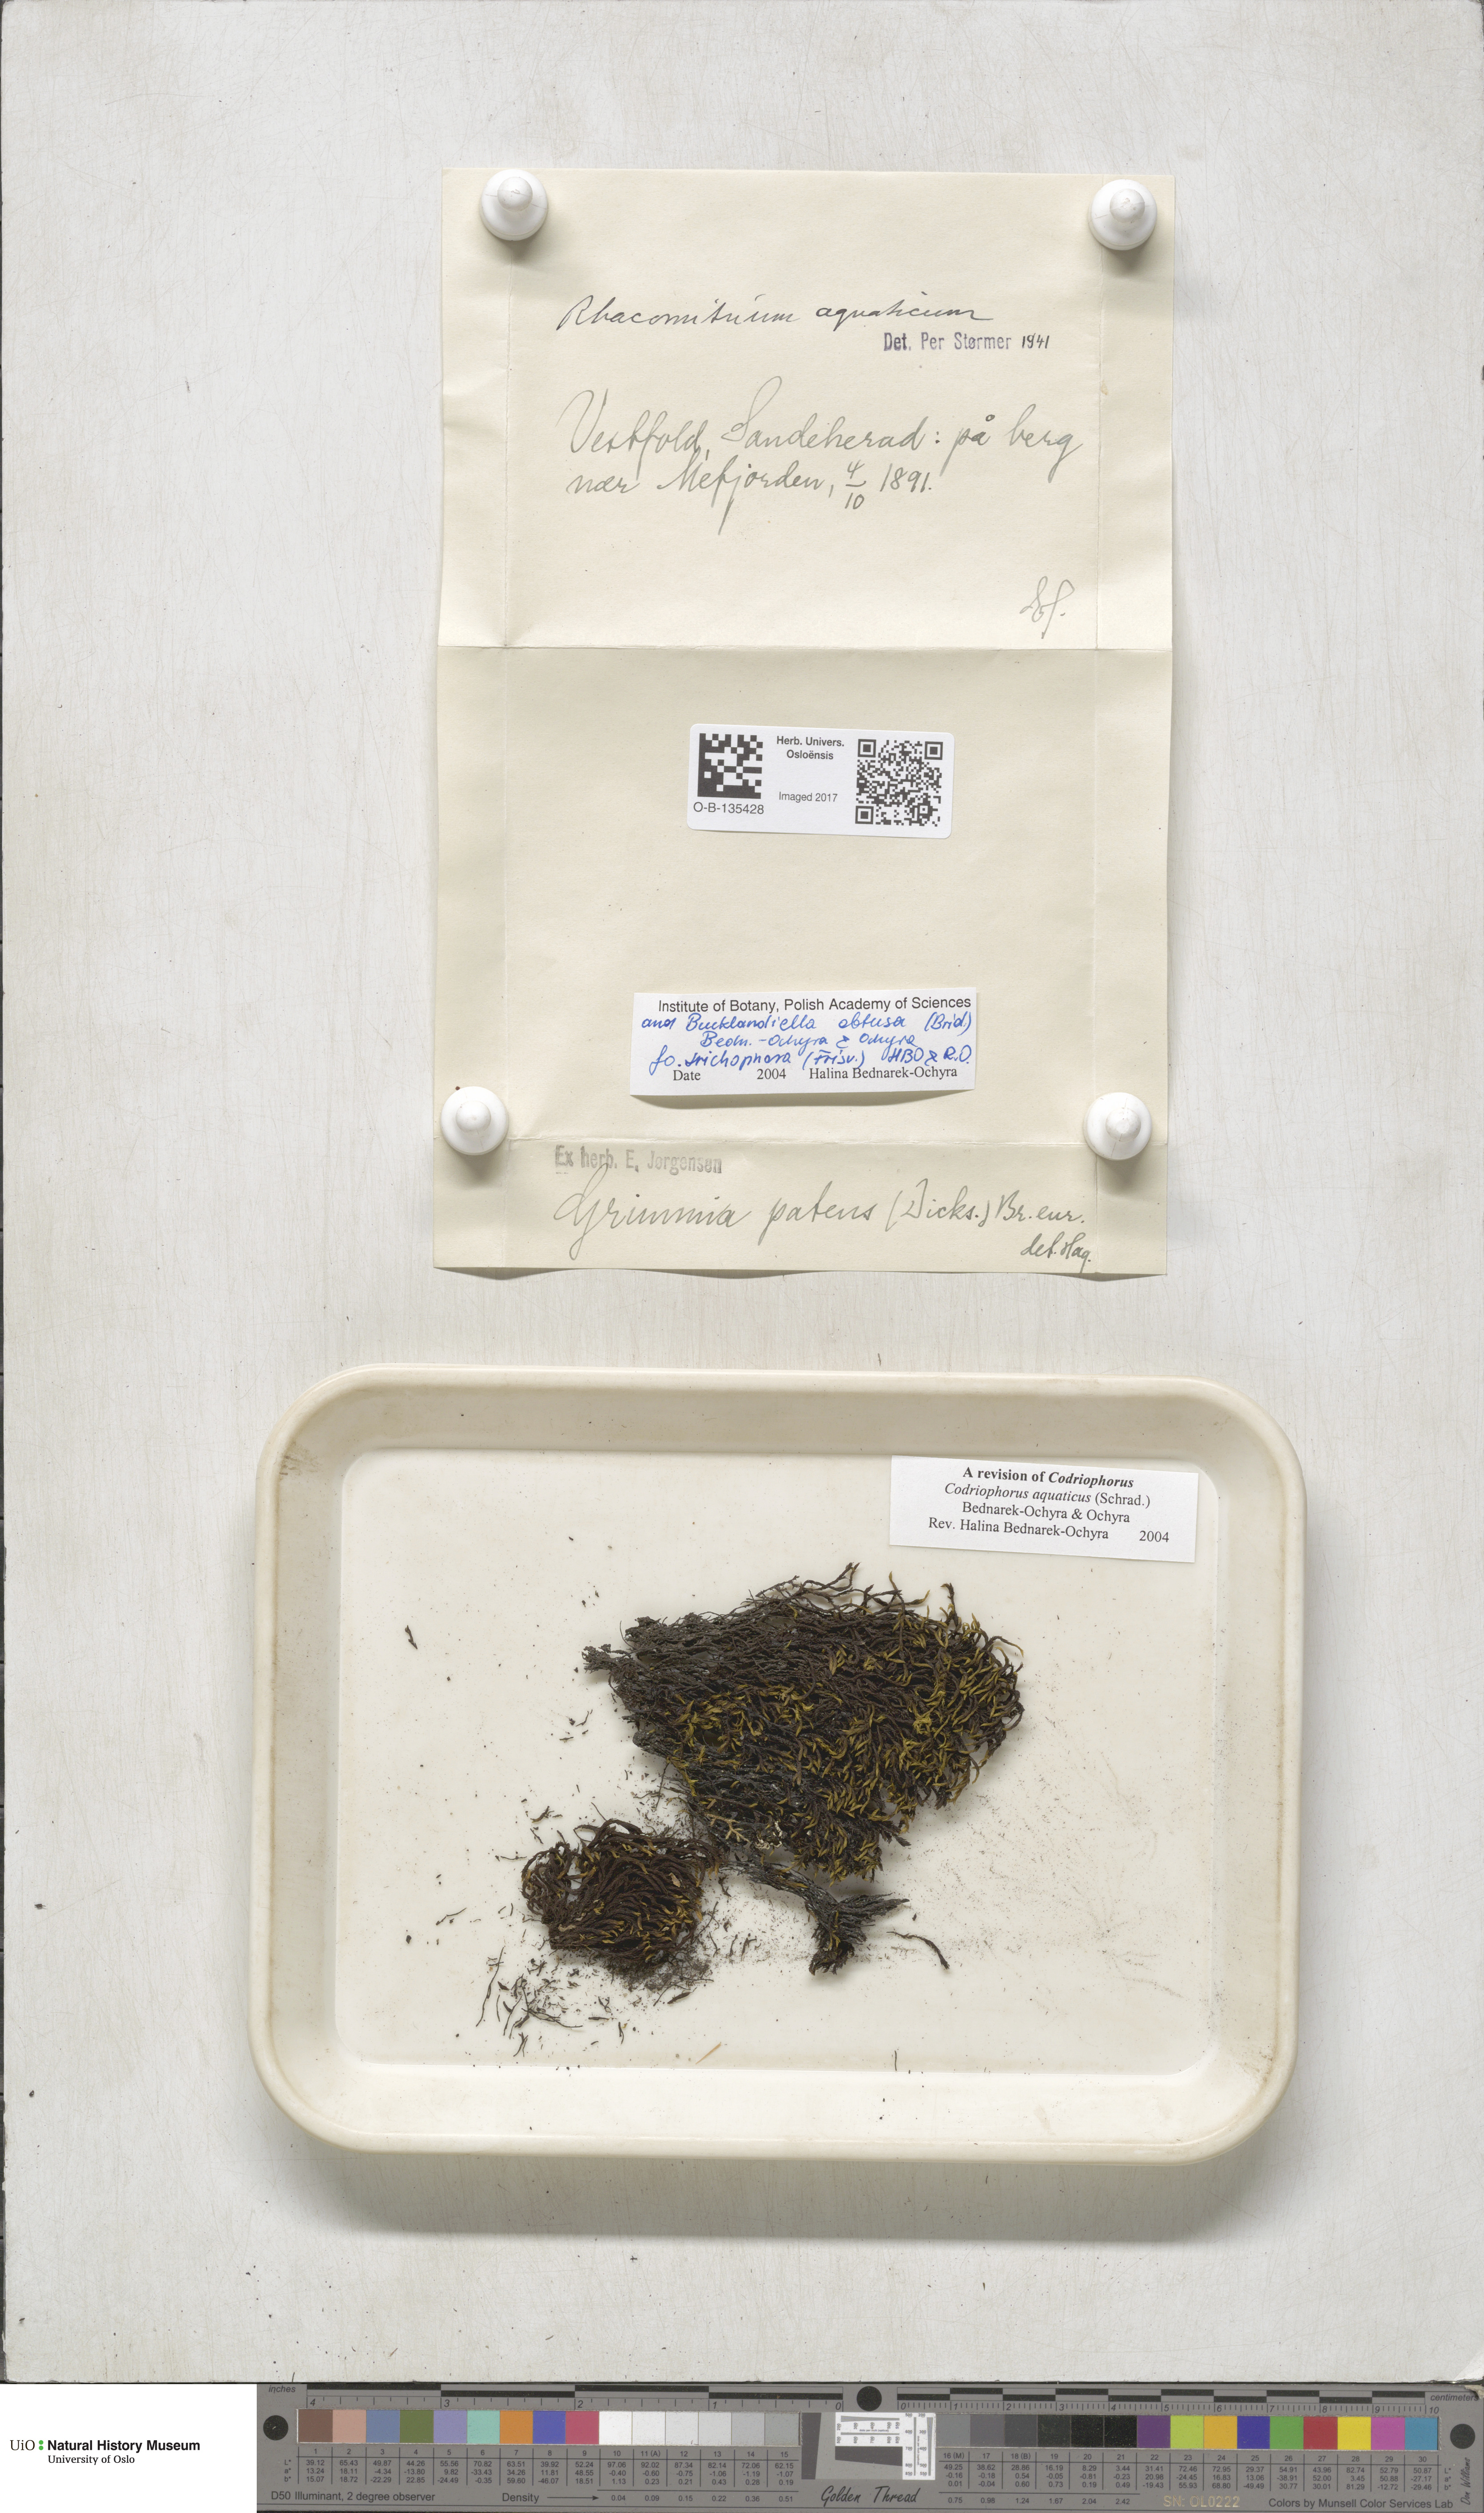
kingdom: Plantae
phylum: Bryophyta
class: Bryopsida
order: Grimmiales
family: Grimmiaceae
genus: Codriophorus
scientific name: Codriophorus aquaticus
